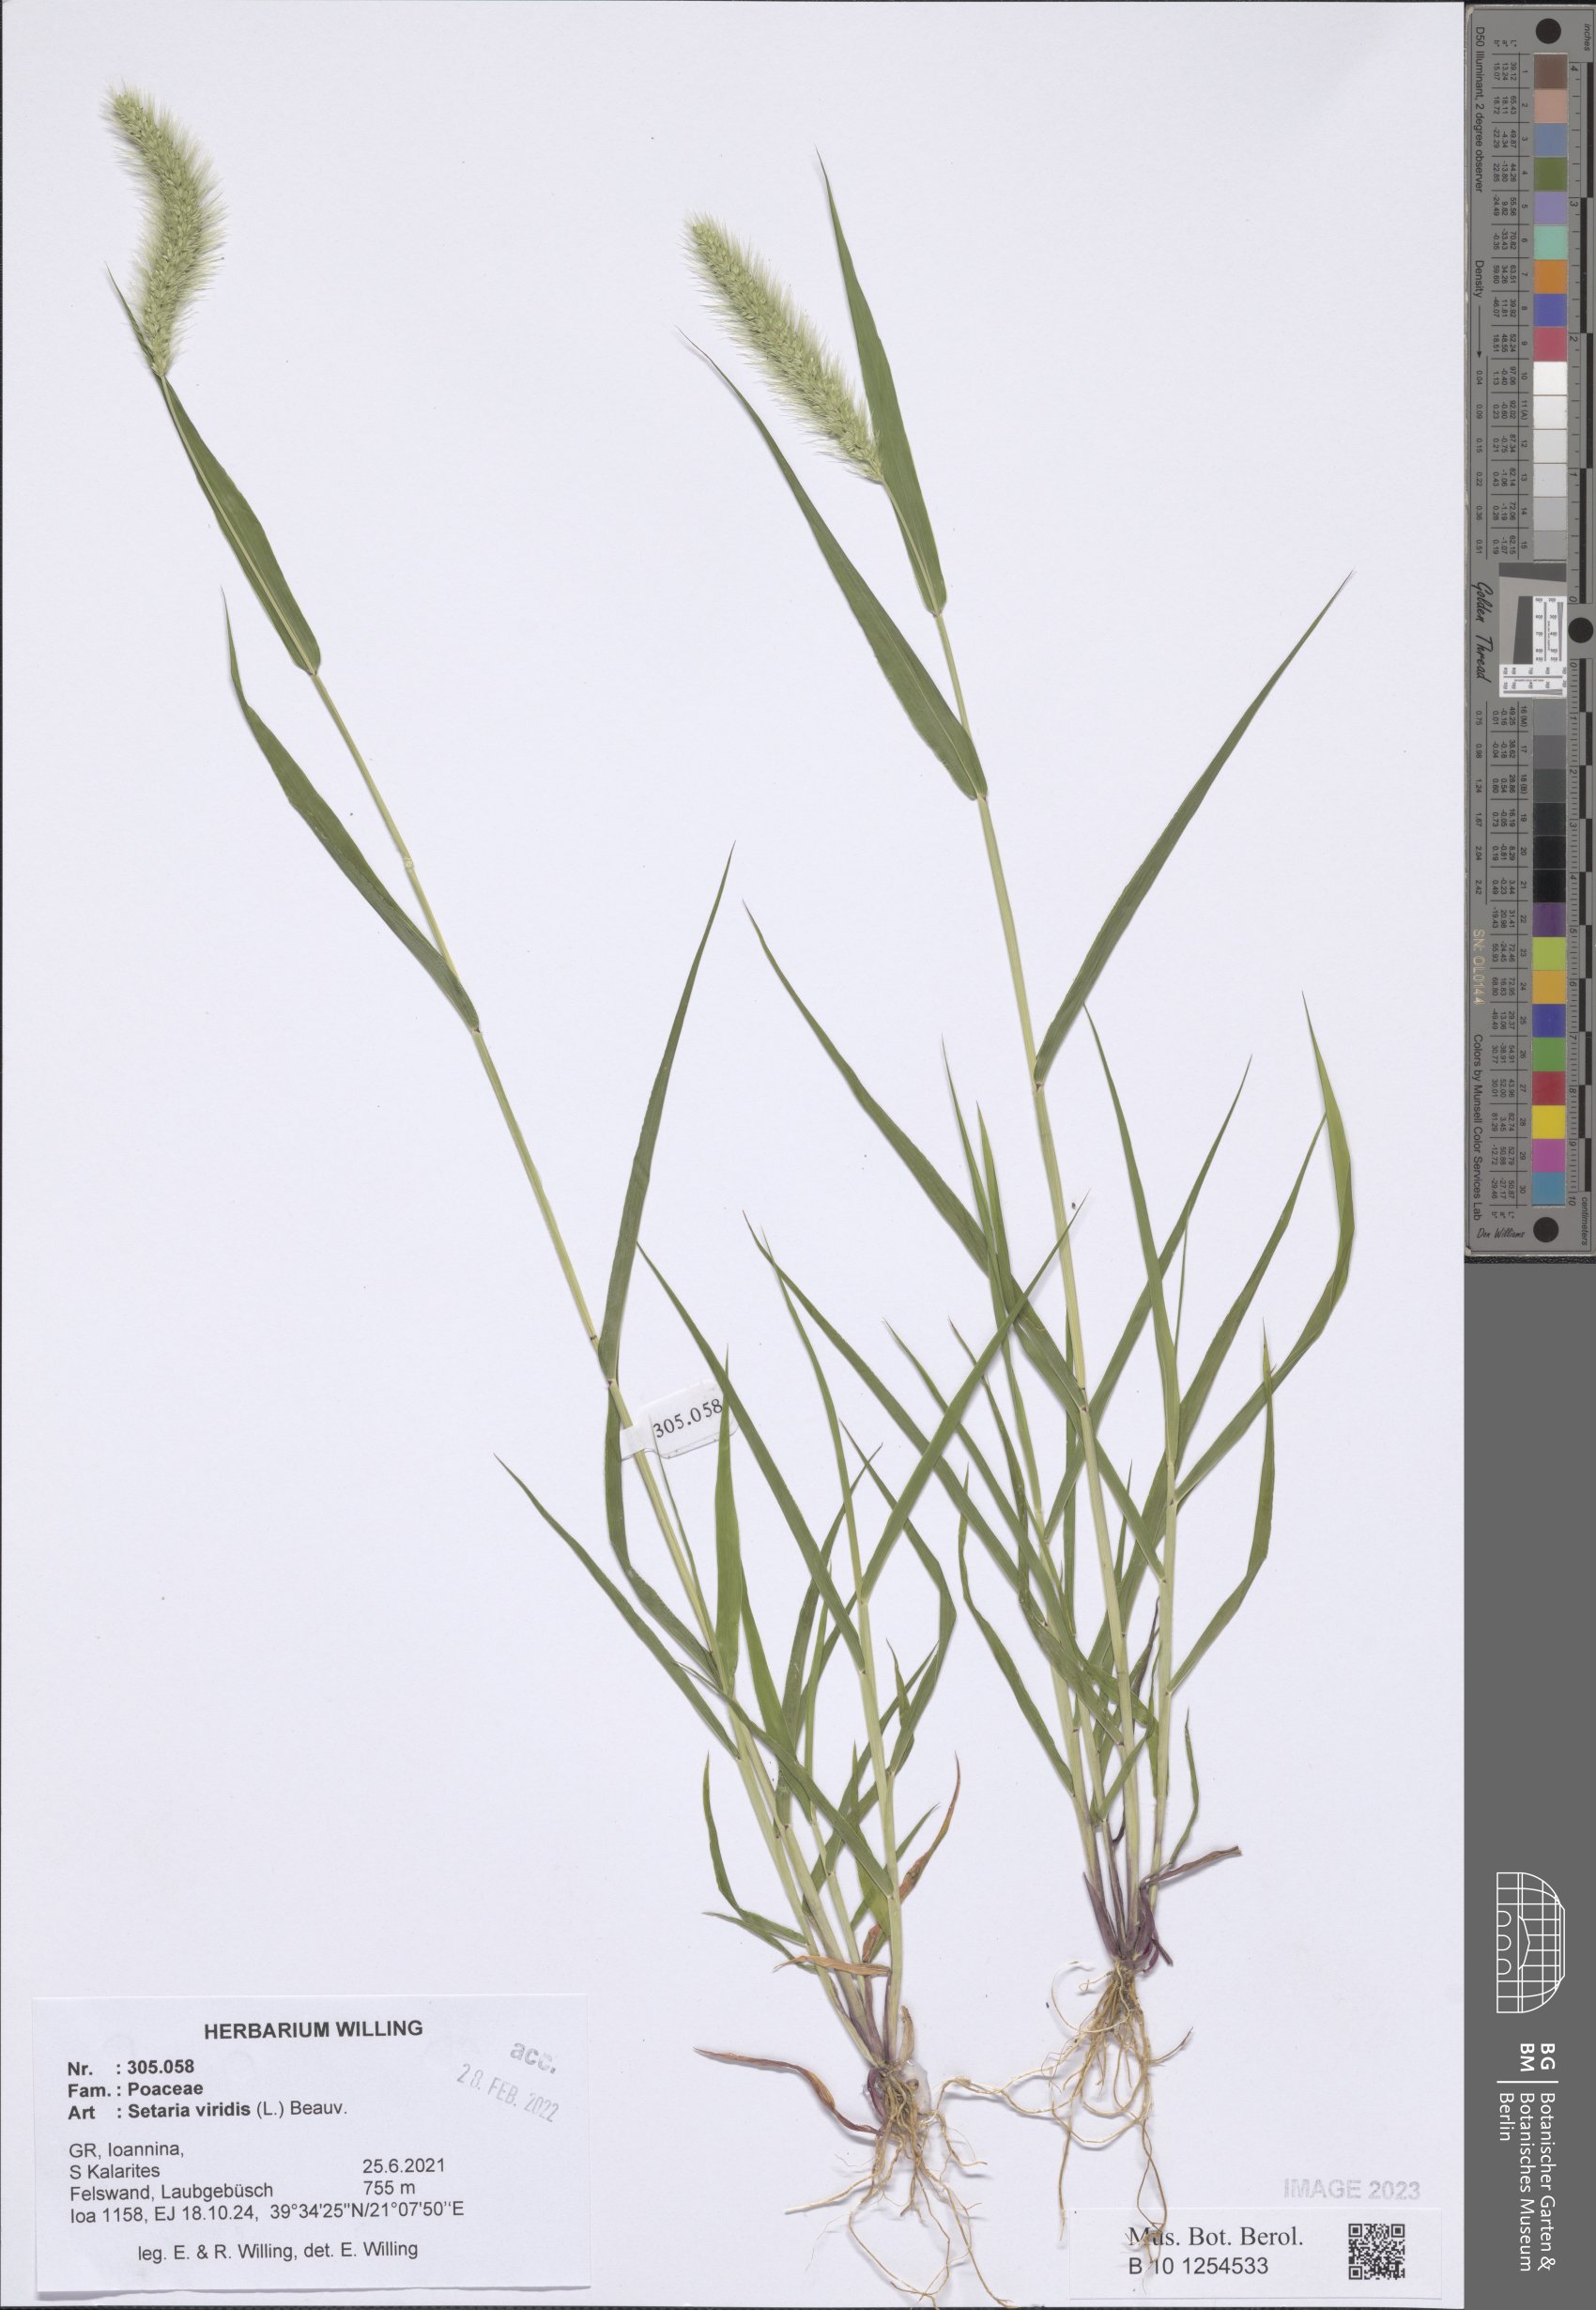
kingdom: Plantae
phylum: Tracheophyta
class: Liliopsida
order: Poales
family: Poaceae
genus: Setaria
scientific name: Setaria viridis
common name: Green bristlegrass
